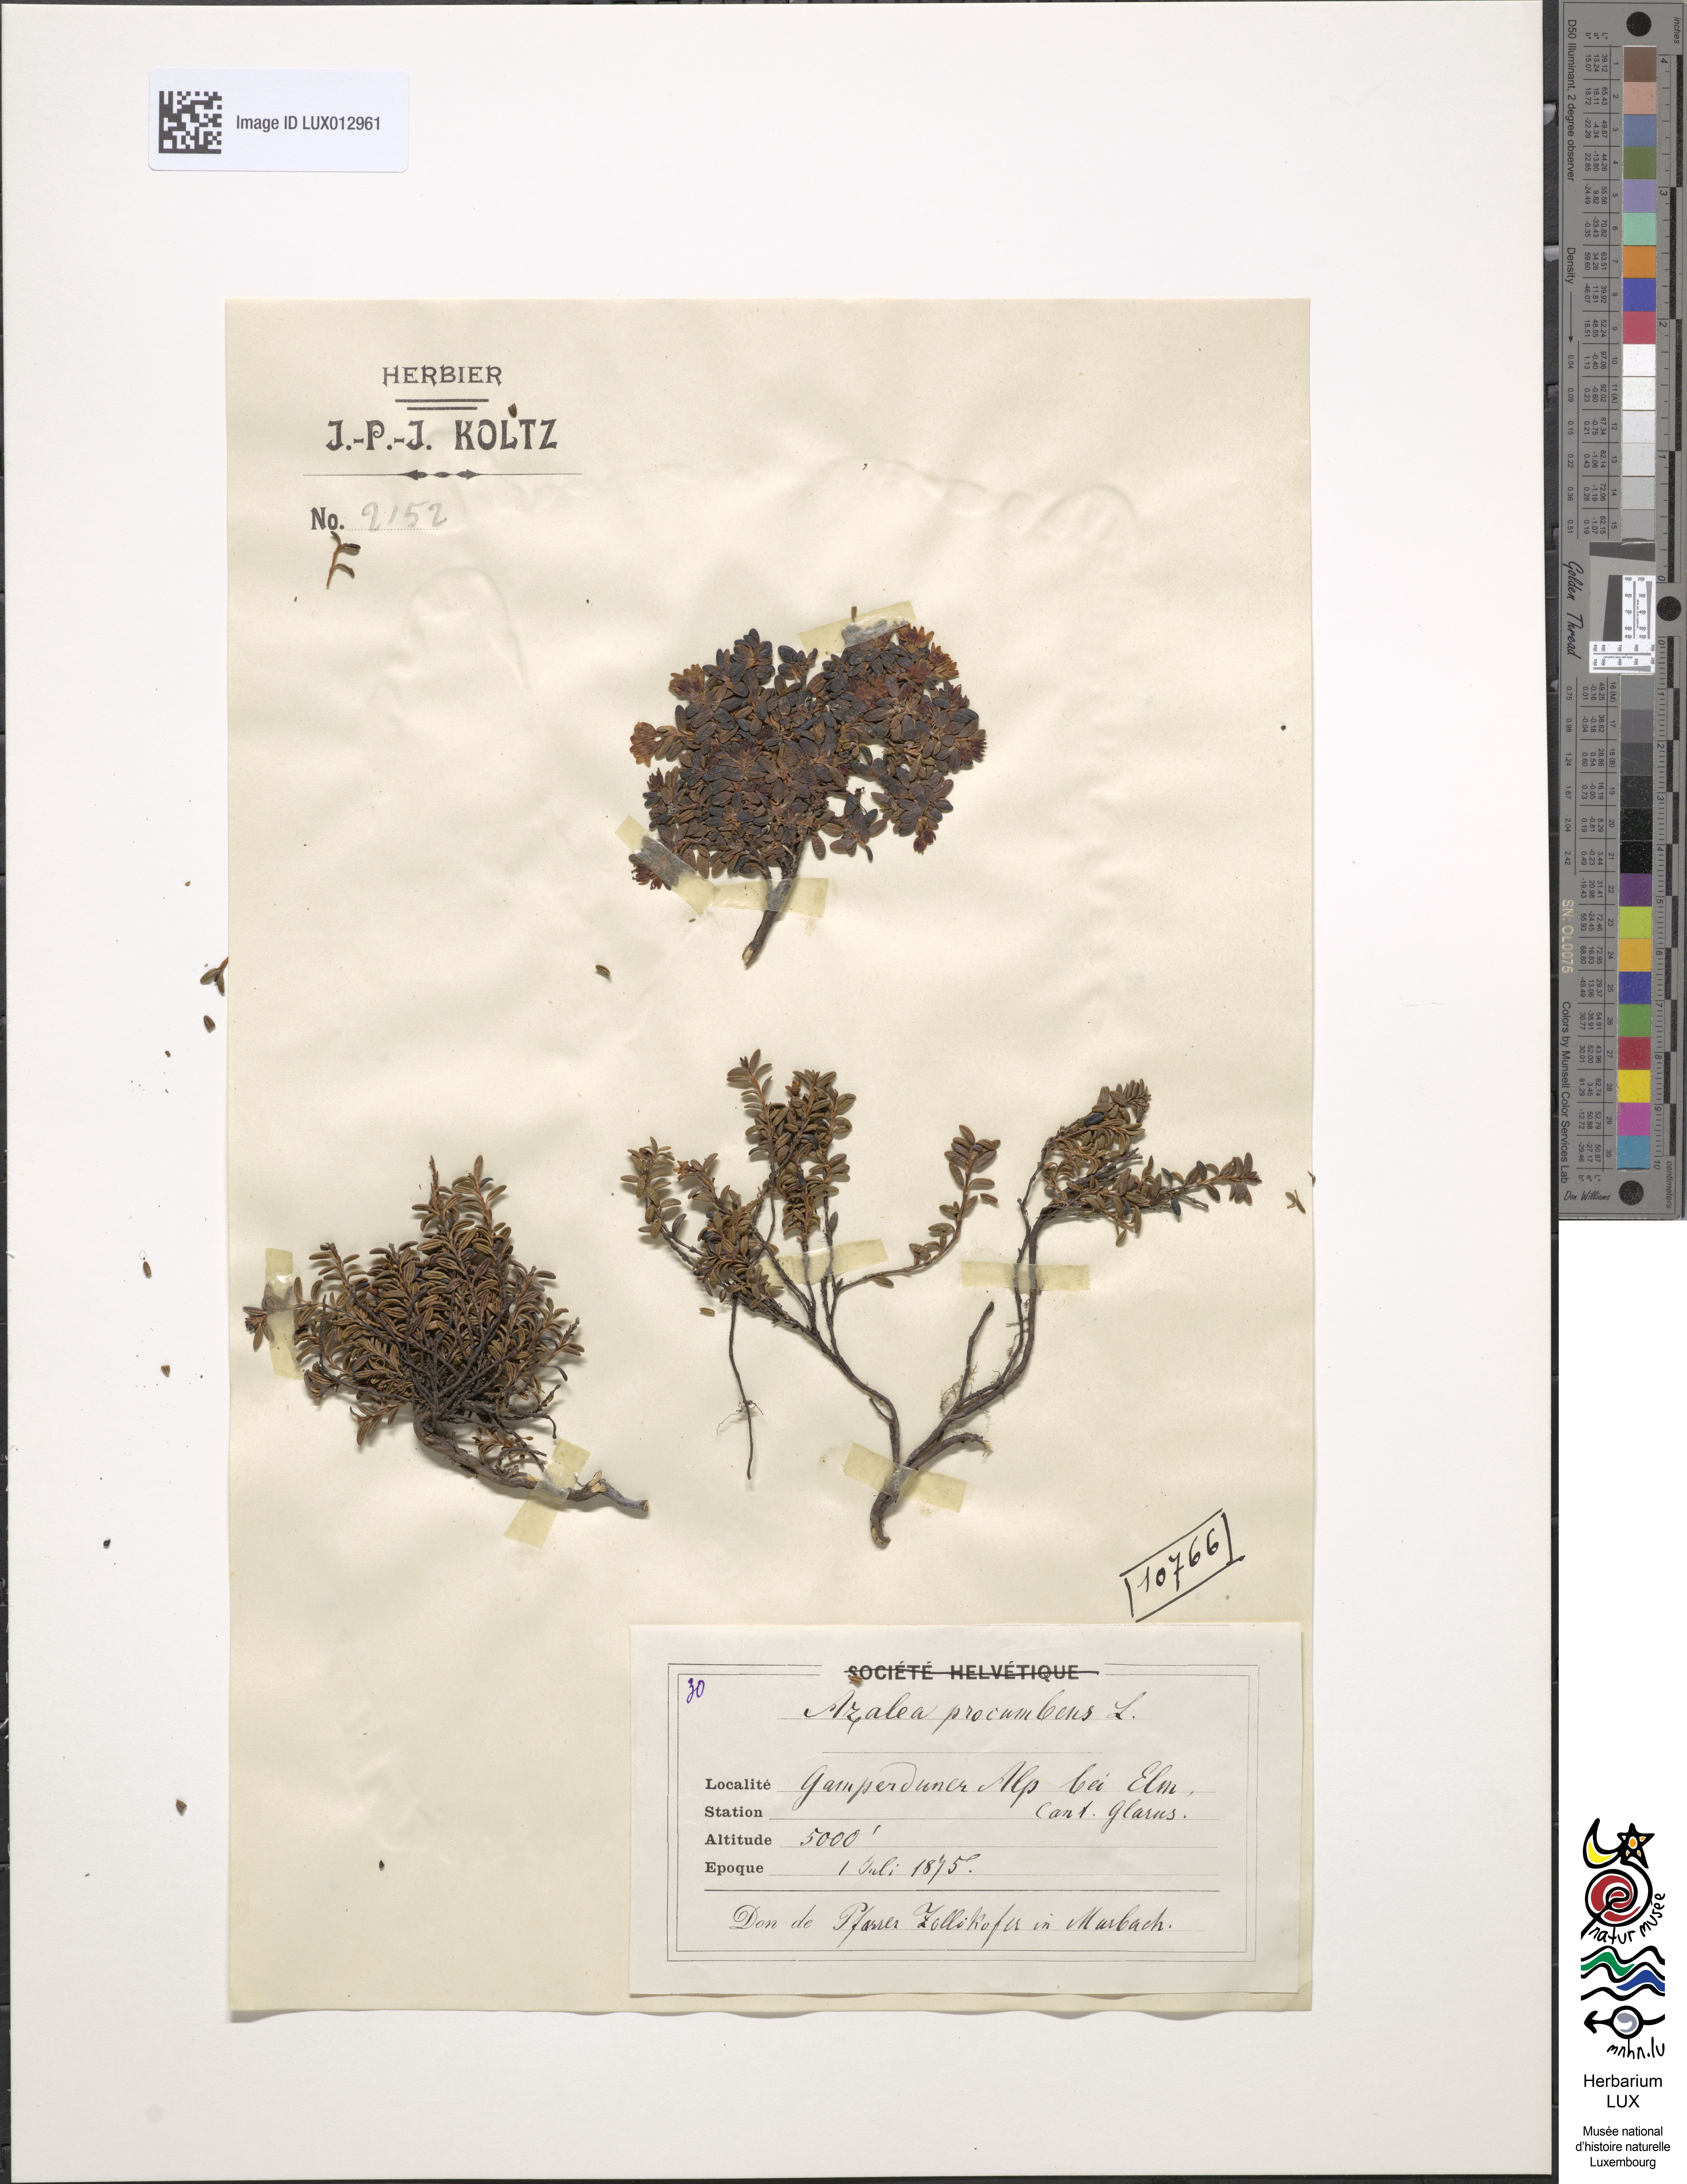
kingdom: Plantae
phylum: Tracheophyta
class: Magnoliopsida
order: Ericales
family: Ericaceae
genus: Kalmia
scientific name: Kalmia procumbens
